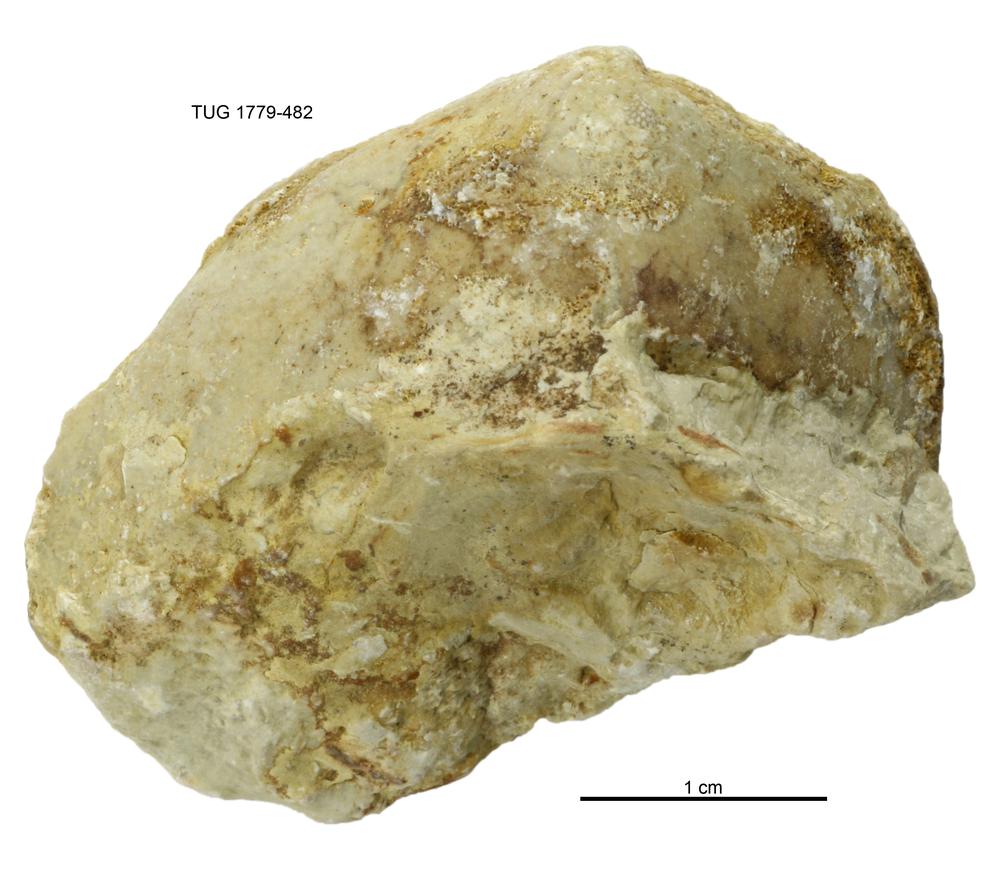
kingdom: Animalia
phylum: Mollusca
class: Bivalvia
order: Modiomorphida
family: Modiomorphidae
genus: Modiolopsis
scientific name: Modiolopsis
